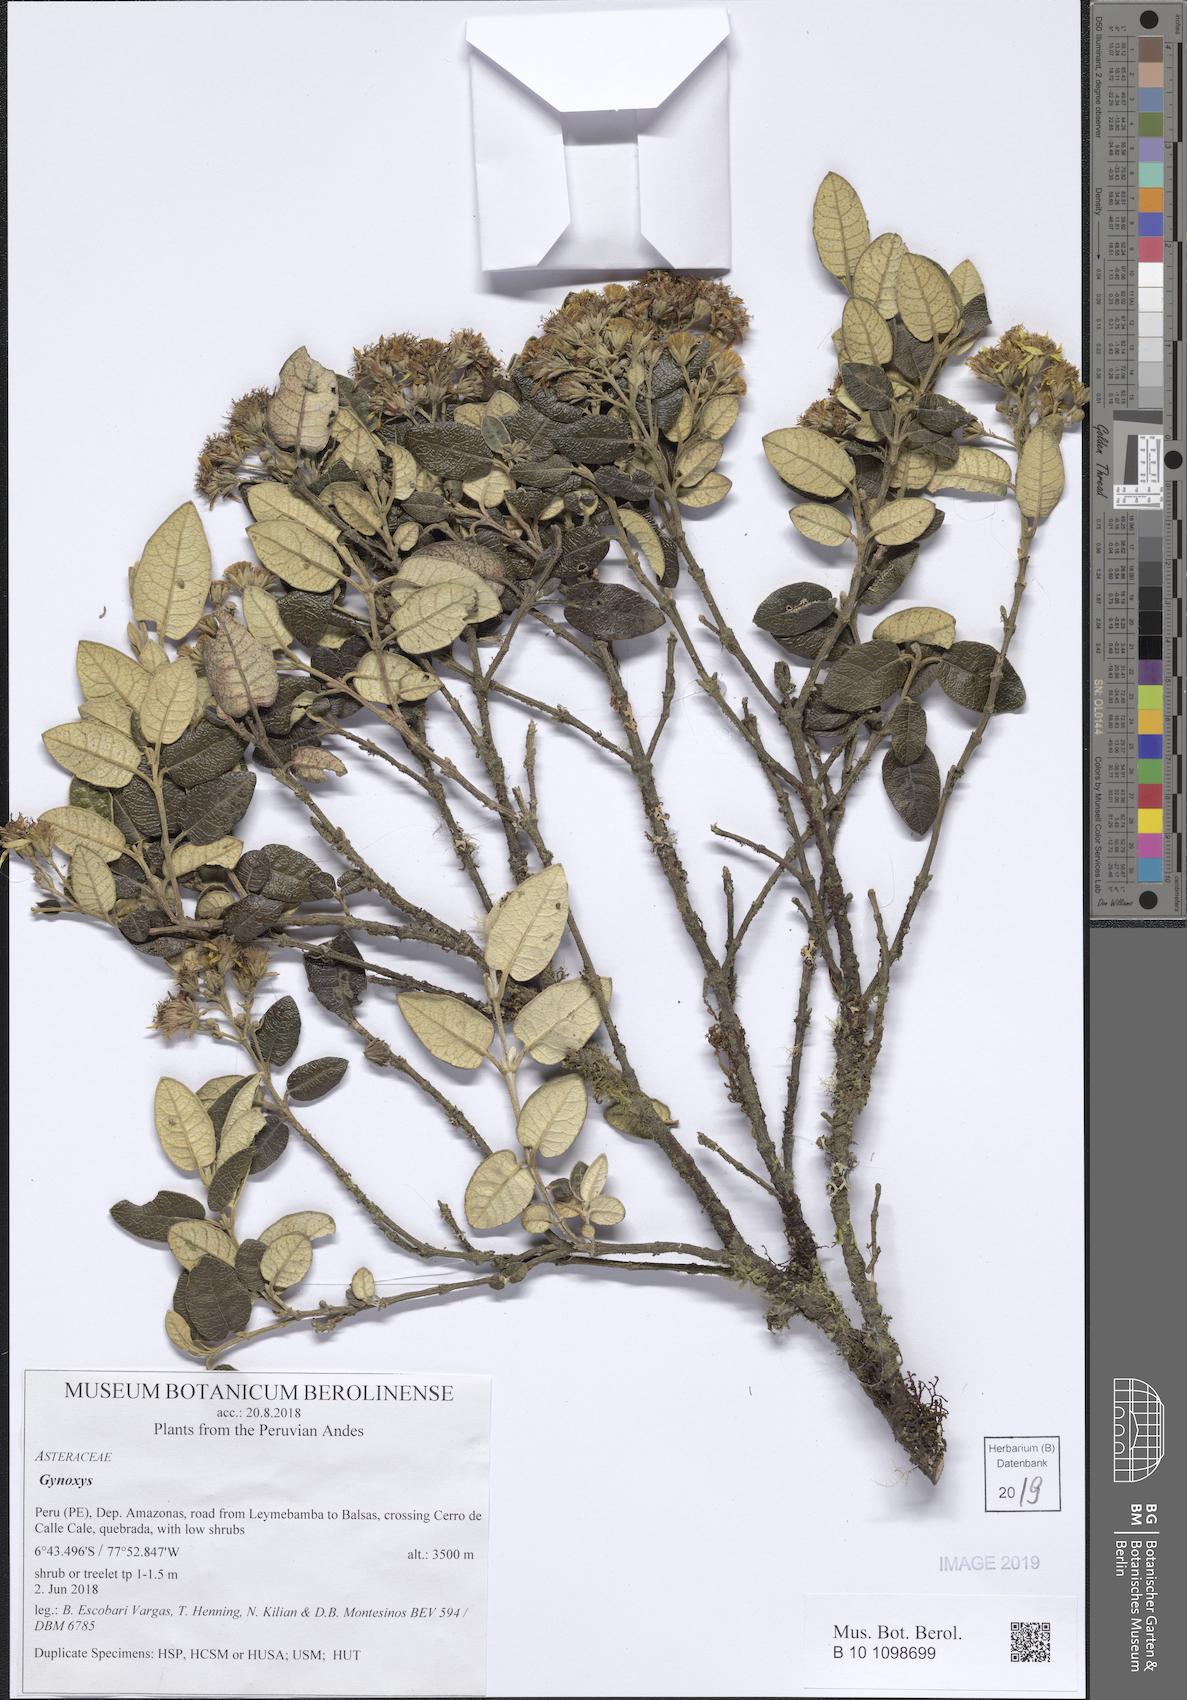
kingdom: Plantae
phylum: Tracheophyta
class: Magnoliopsida
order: Asterales
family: Asteraceae
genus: Gynoxys
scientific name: Gynoxys
